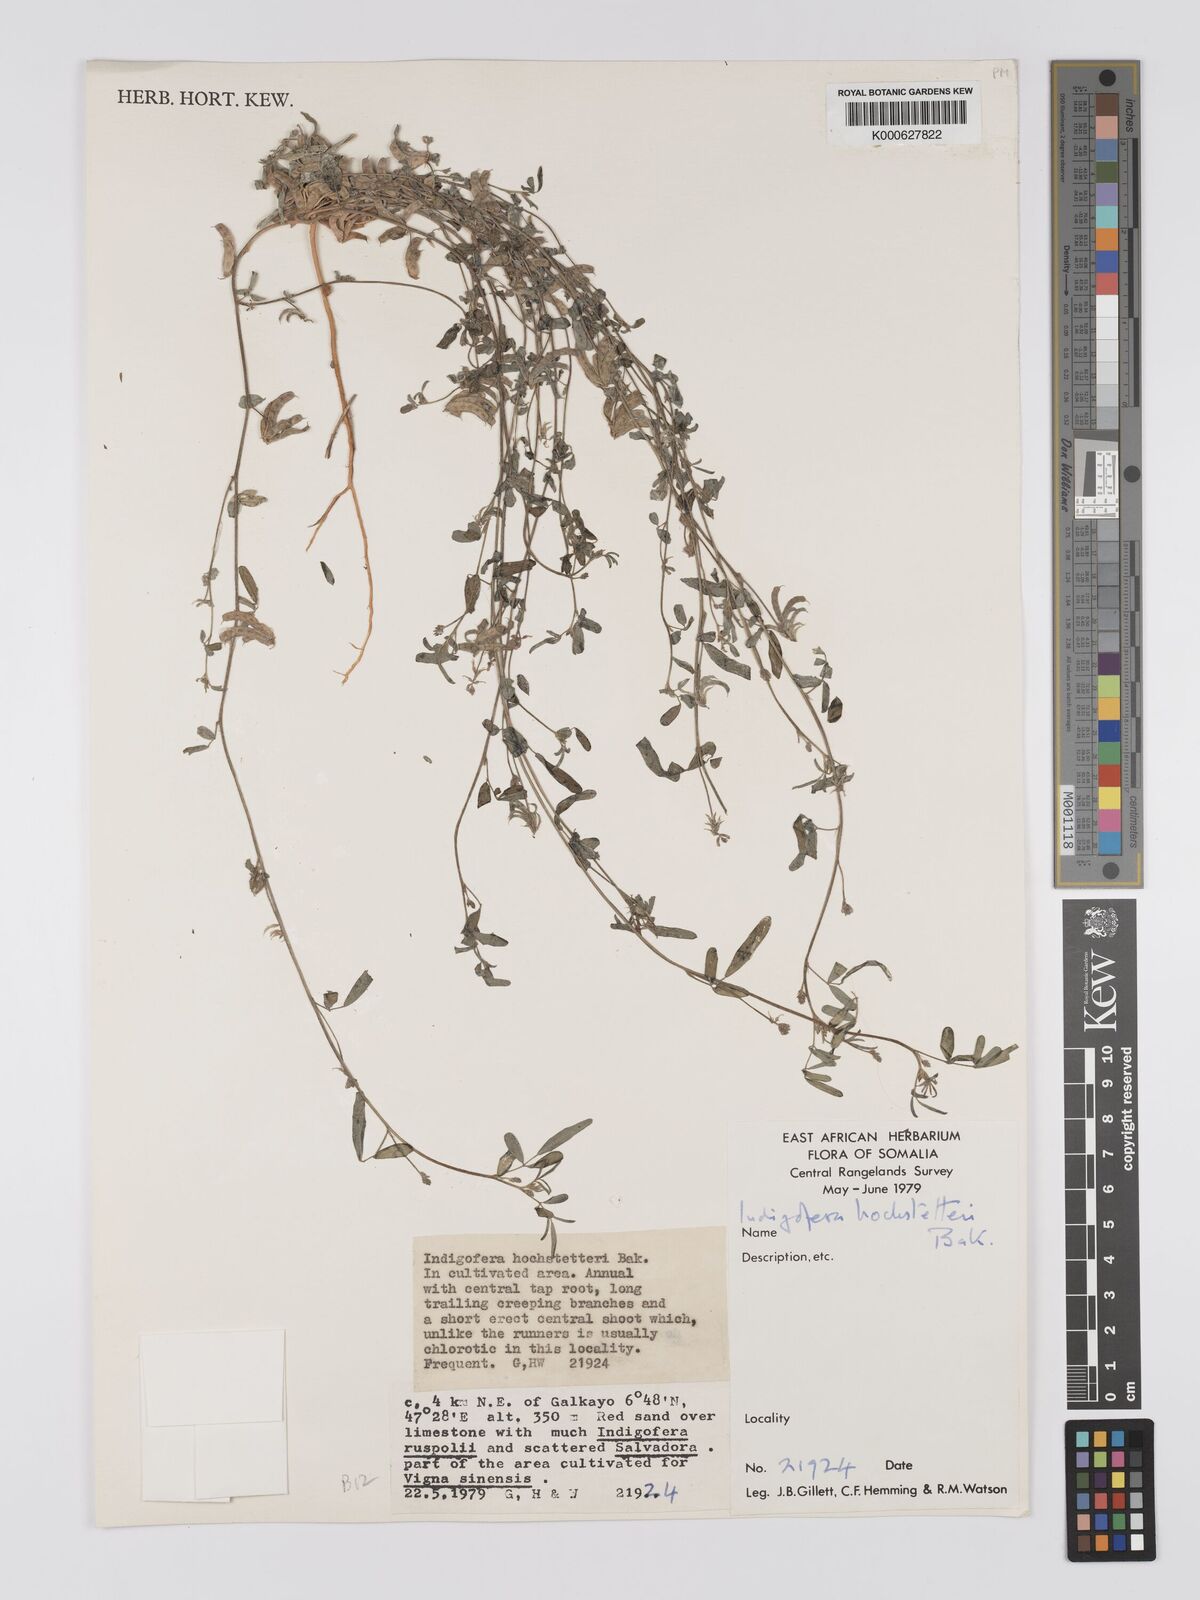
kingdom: Plantae
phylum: Tracheophyta
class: Magnoliopsida
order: Fabales
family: Fabaceae
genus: Indigofera
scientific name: Indigofera hochstetteri
